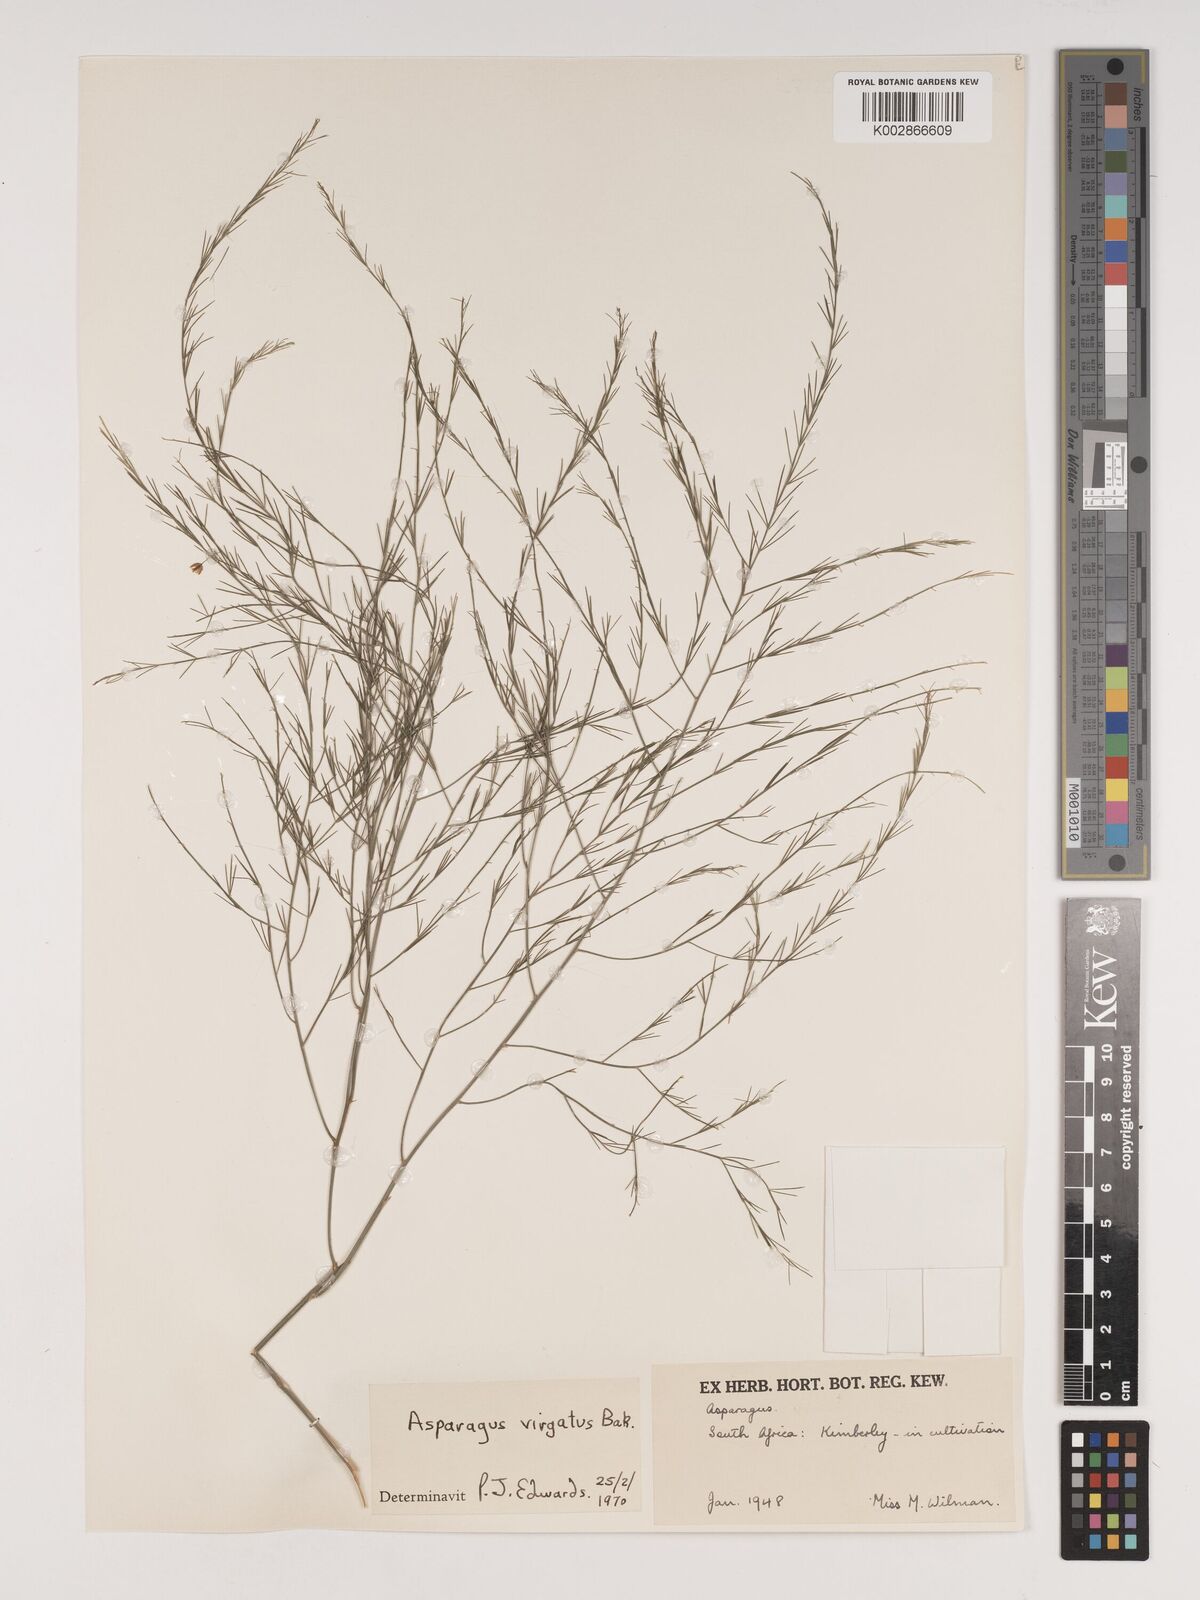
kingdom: Plantae
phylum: Tracheophyta
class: Liliopsida
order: Asparagales
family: Asparagaceae
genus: Asparagus
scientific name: Asparagus virgatus
